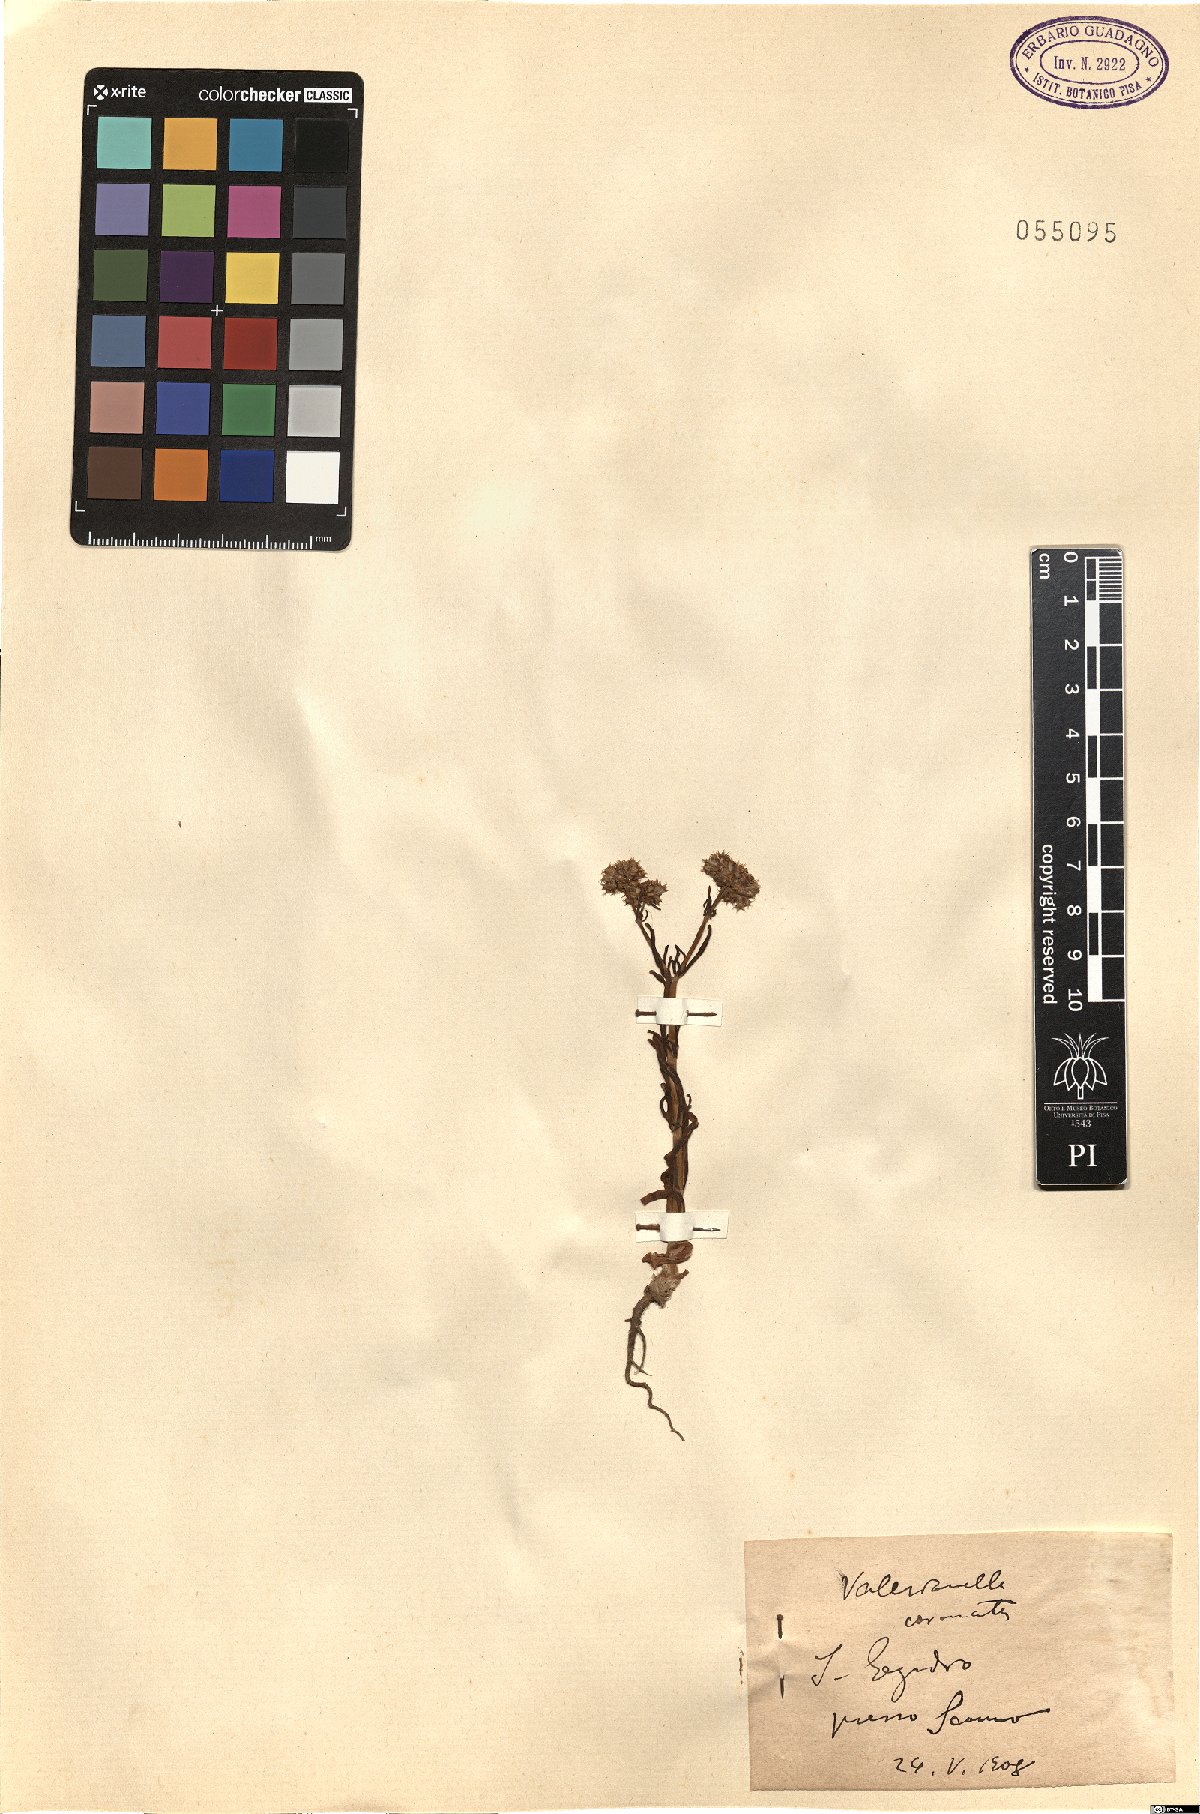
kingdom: Plantae
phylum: Tracheophyta
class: Magnoliopsida
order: Dipsacales
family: Caprifoliaceae
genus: Valerianella
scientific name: Valerianella coronata
